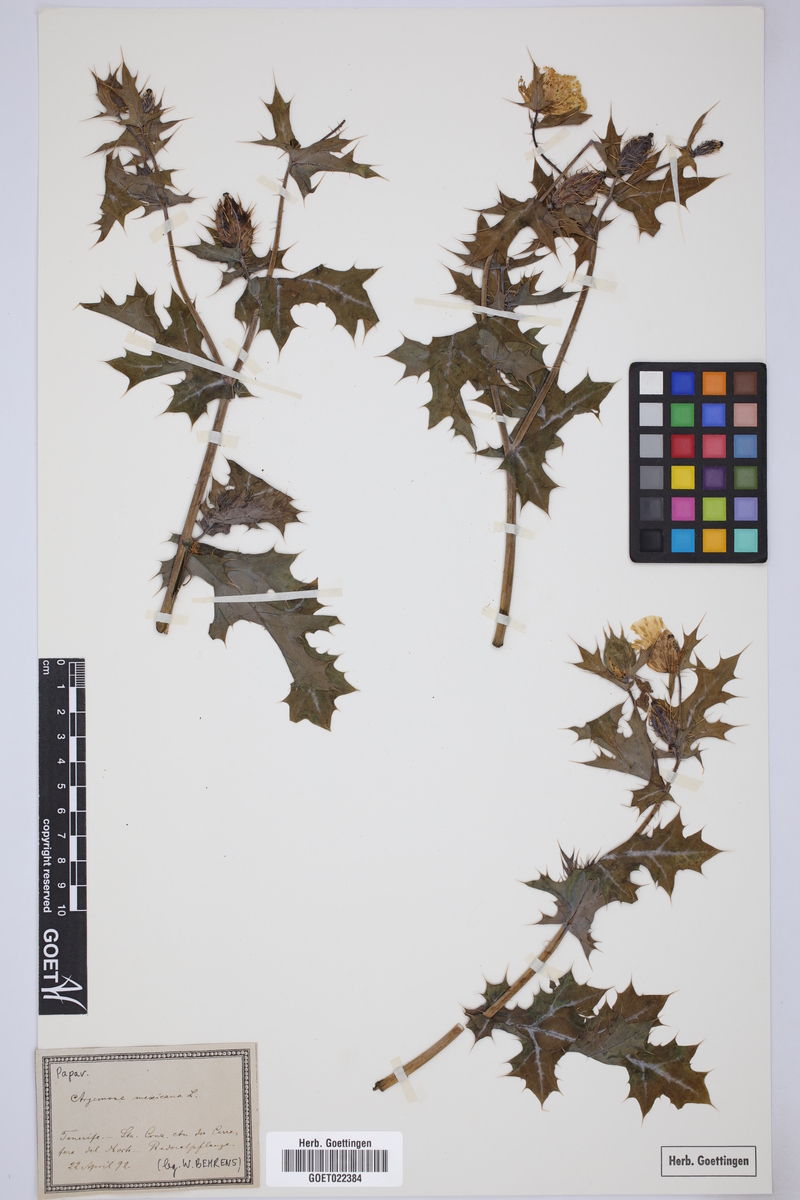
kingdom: Plantae
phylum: Tracheophyta
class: Magnoliopsida
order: Ranunculales
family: Papaveraceae
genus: Argemone
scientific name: Argemone mexicana
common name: Mexican poppy
